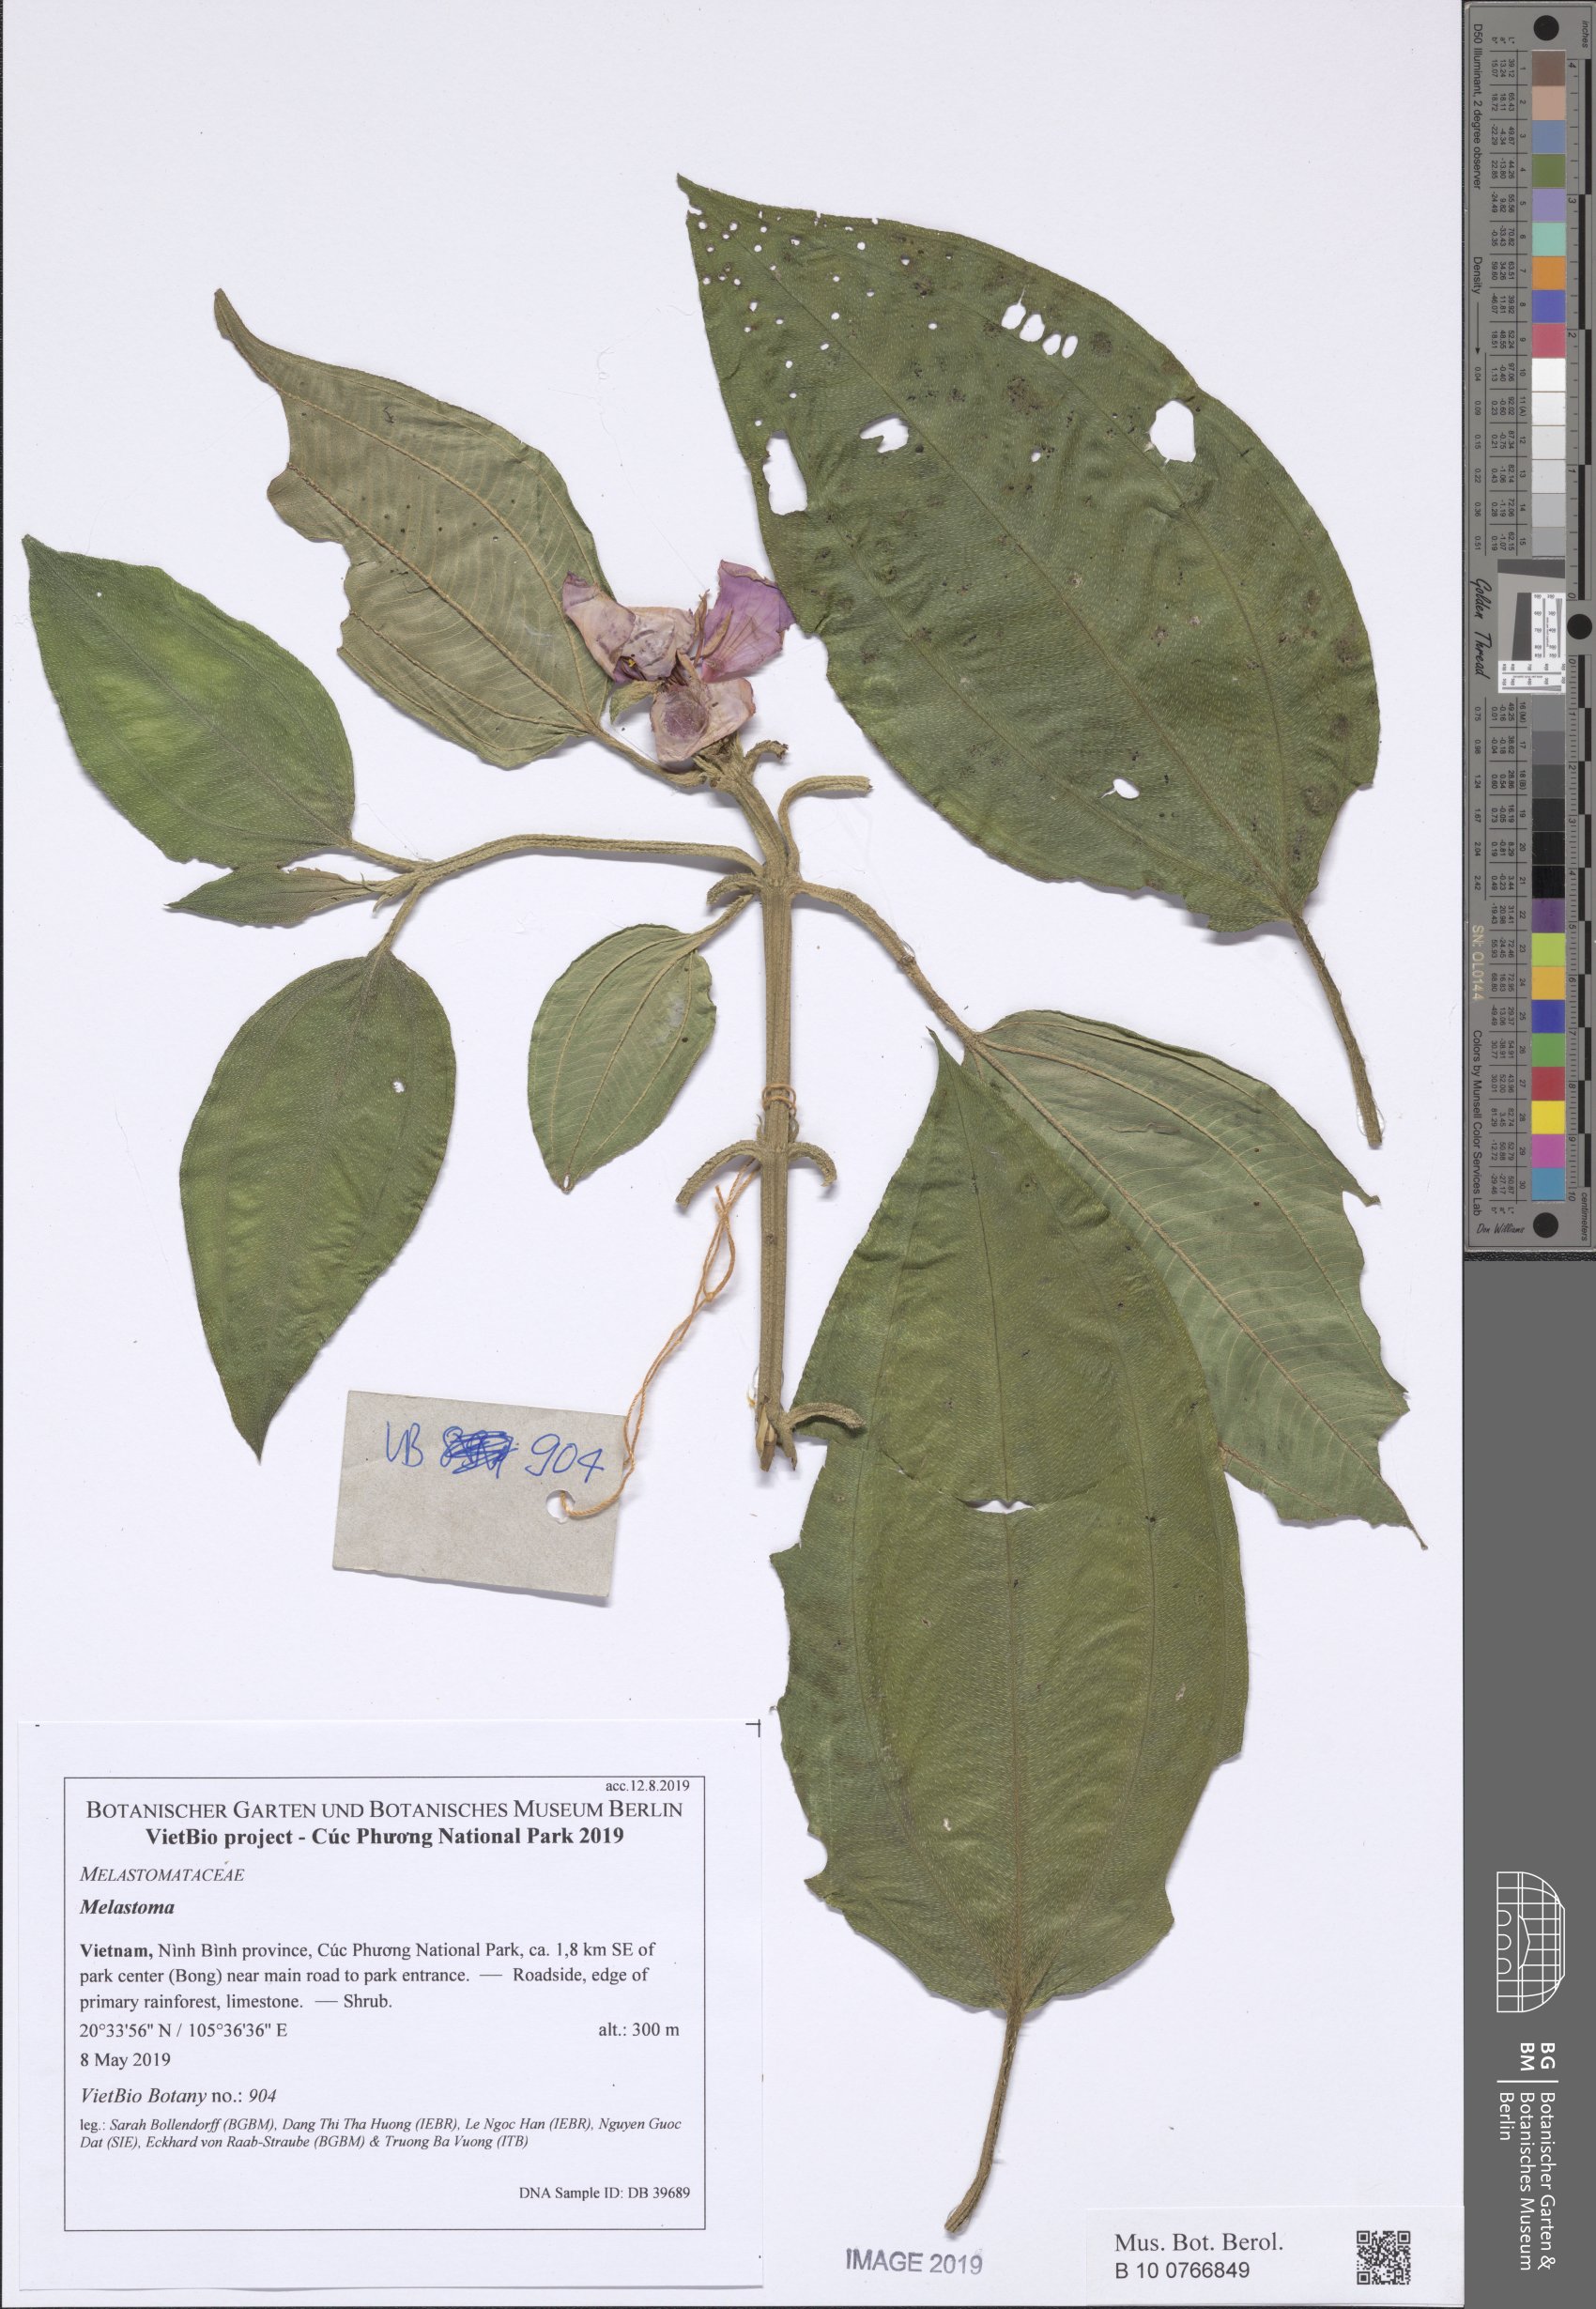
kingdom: Plantae
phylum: Tracheophyta
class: Magnoliopsida
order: Myrtales
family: Melastomataceae
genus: Melastoma
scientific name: Melastoma malabathricum
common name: Indian-rhododendron
